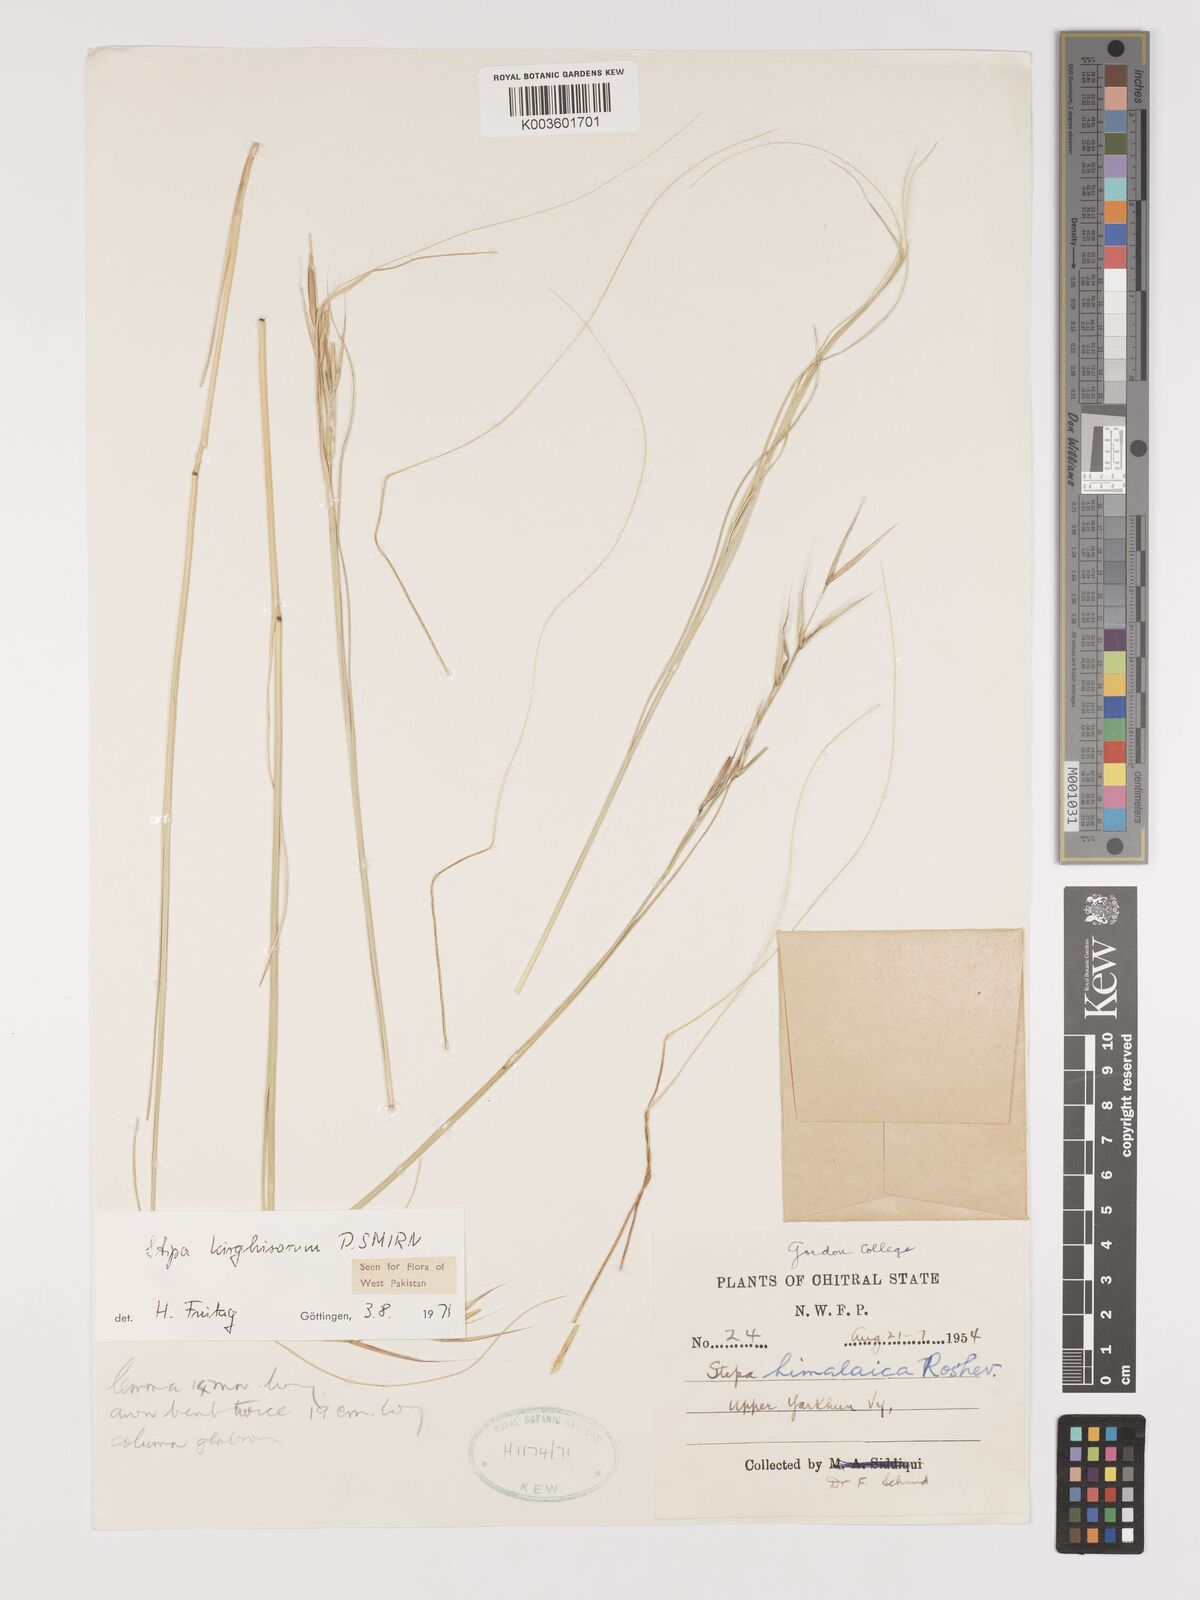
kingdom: Plantae
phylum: Tracheophyta
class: Liliopsida
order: Poales
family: Poaceae
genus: Stipa
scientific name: Stipa kirghisorum
